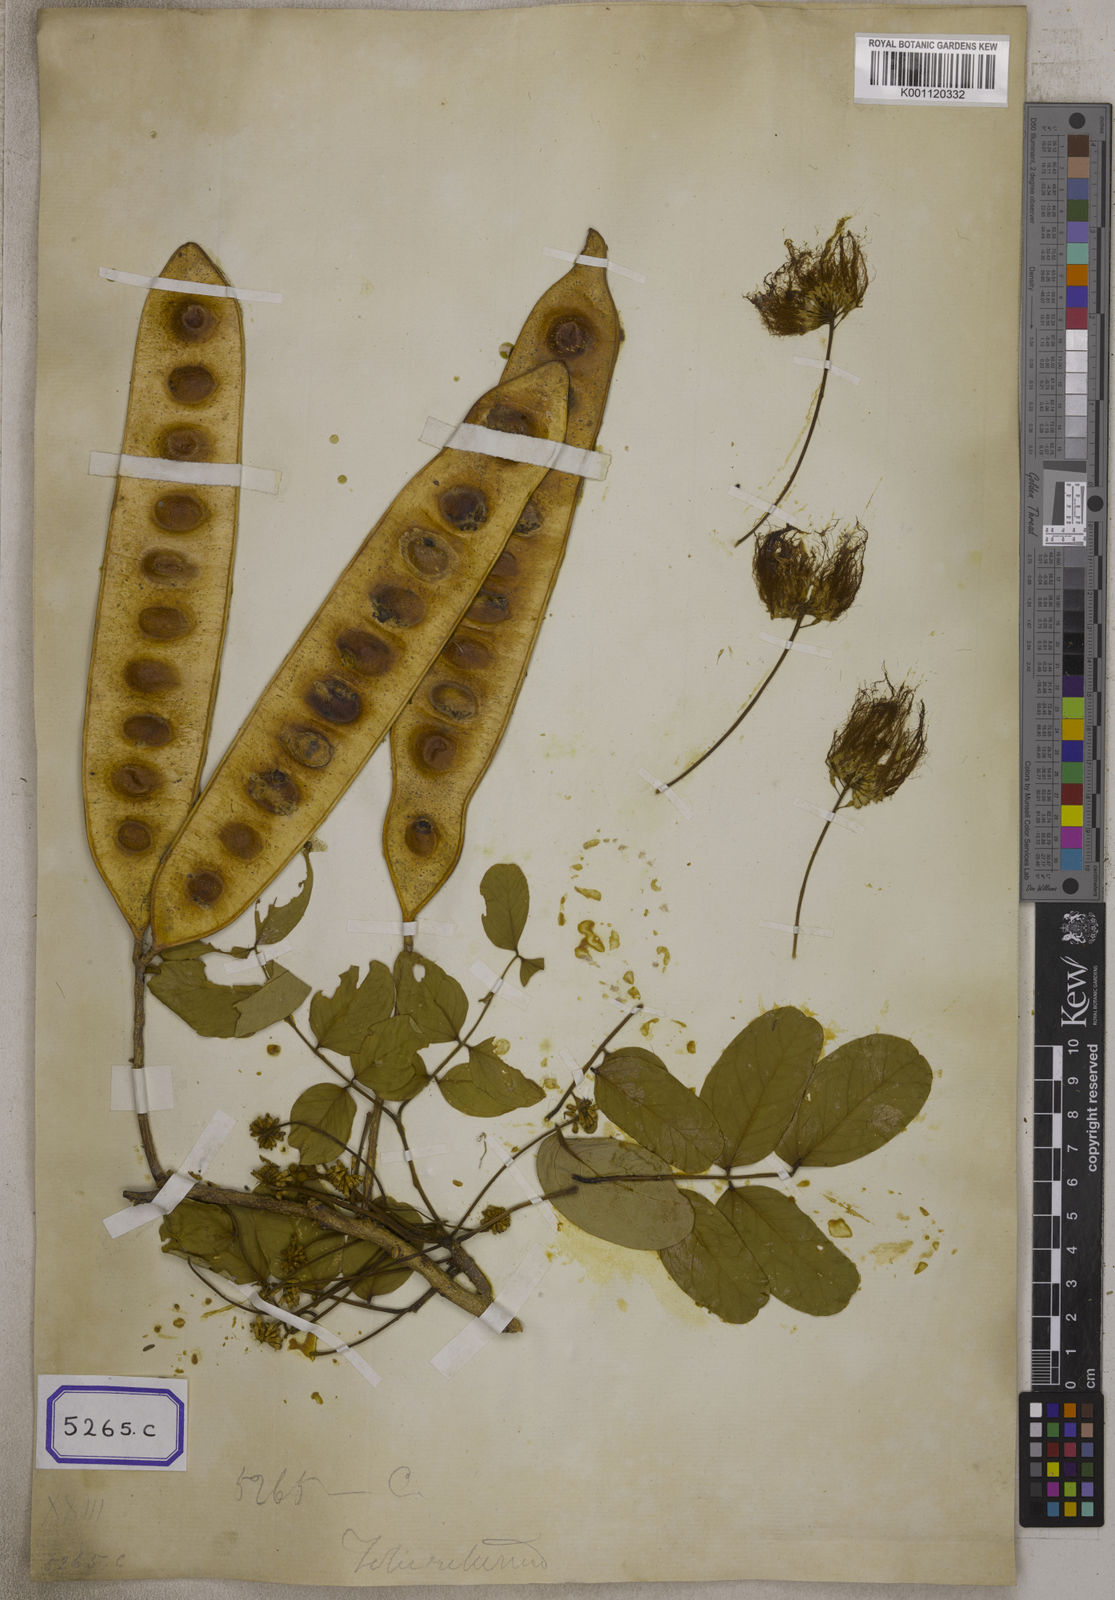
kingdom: Plantae
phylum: Tracheophyta
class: Magnoliopsida
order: Fabales
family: Fabaceae
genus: Acacia
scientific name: Acacia
